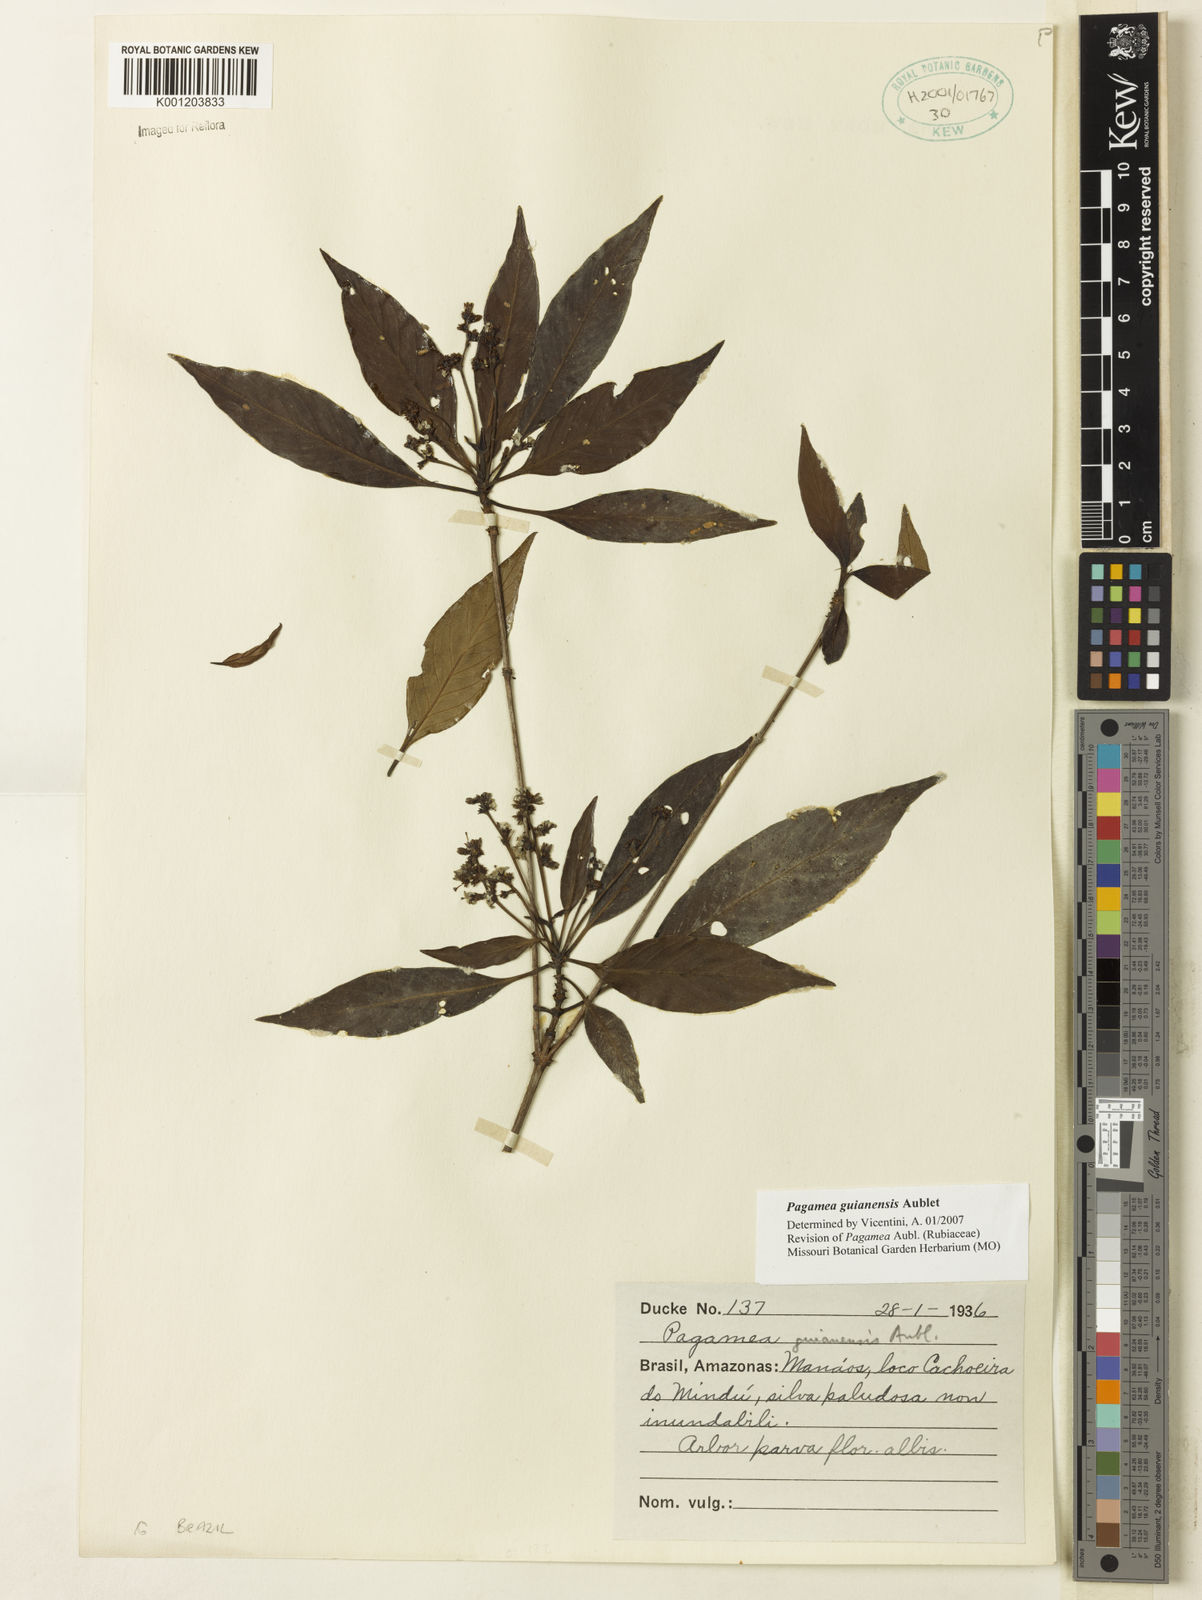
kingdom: Plantae
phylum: Tracheophyta
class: Magnoliopsida
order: Gentianales
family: Rubiaceae
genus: Pagamea
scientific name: Pagamea guianensis
